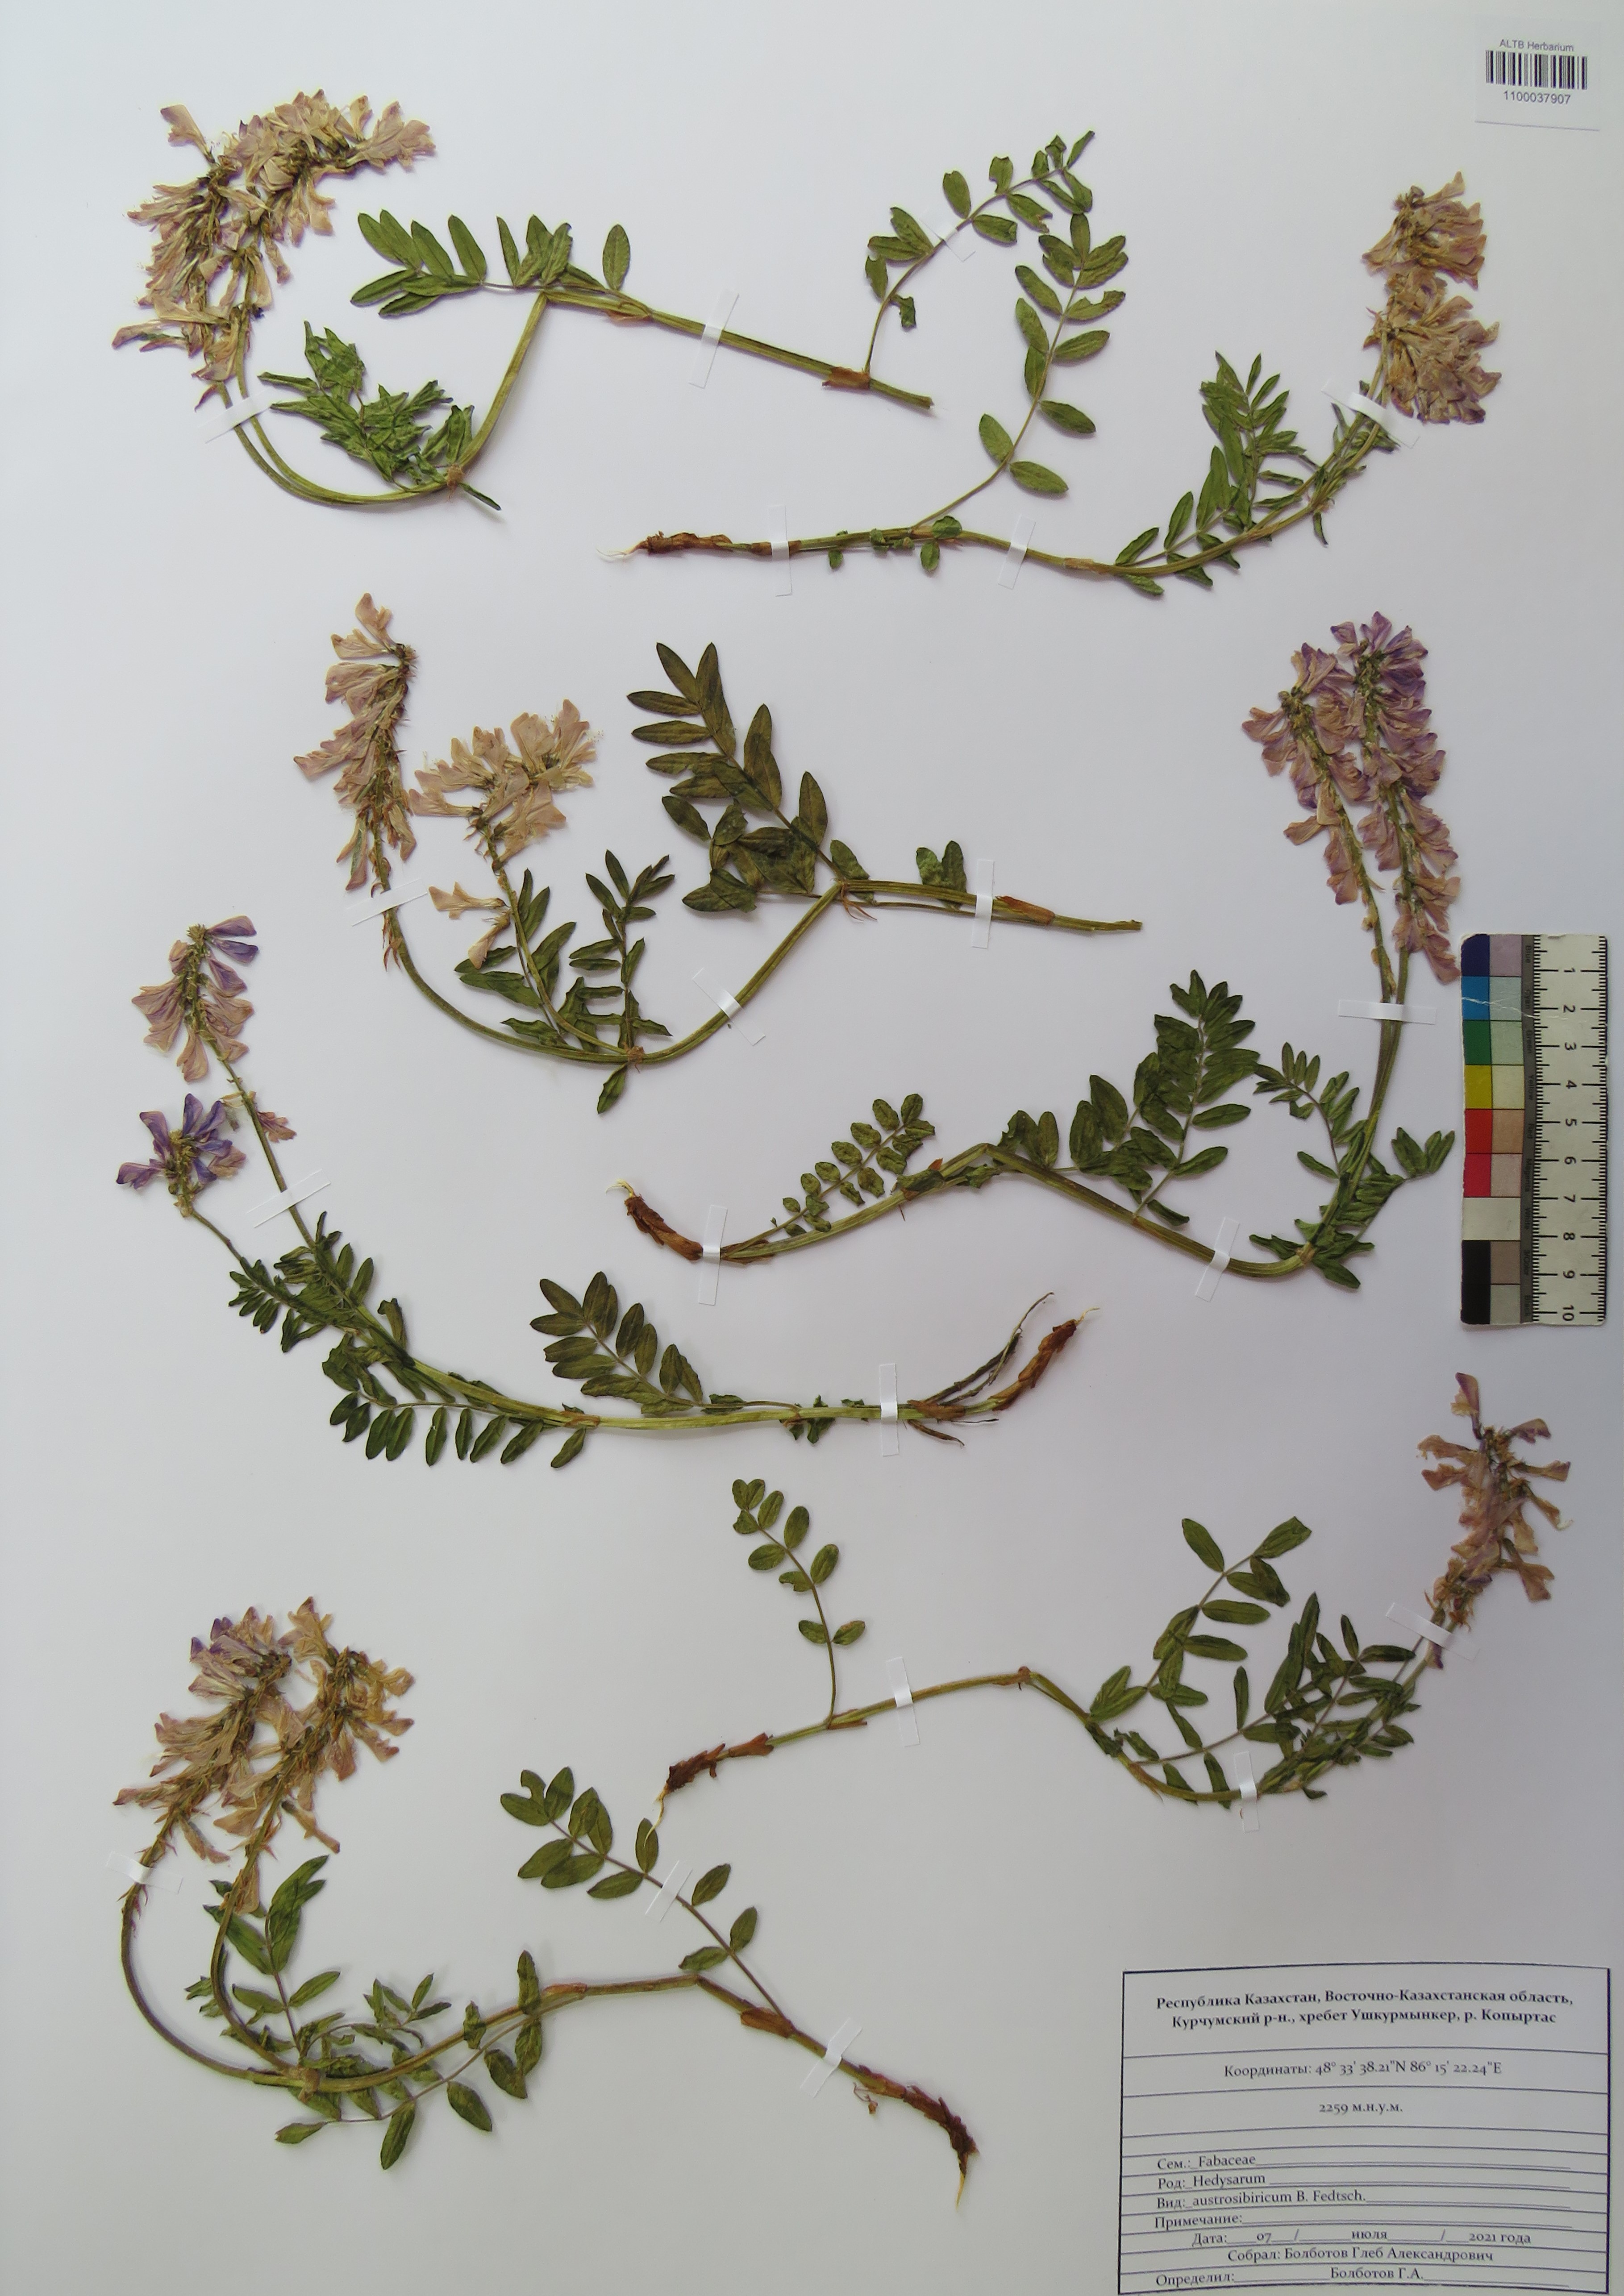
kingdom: Plantae
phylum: Tracheophyta
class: Magnoliopsida
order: Fabales
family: Fabaceae
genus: Hedysarum
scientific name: Hedysarum neglectum
